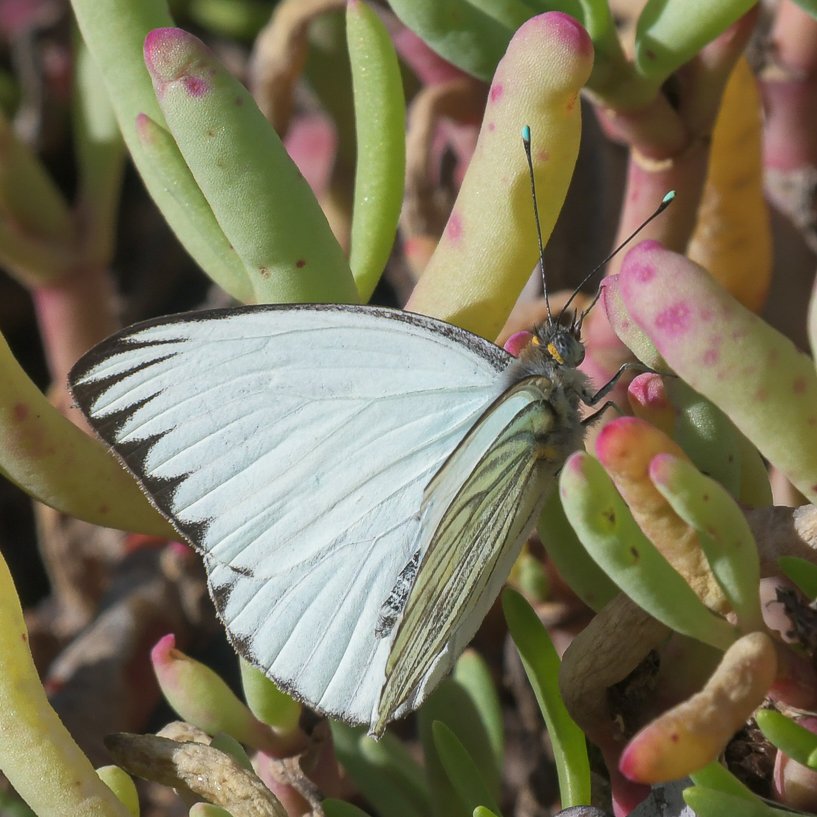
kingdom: Animalia
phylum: Arthropoda
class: Insecta
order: Lepidoptera
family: Pieridae
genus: Ascia
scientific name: Ascia monuste
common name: Great Southern White
